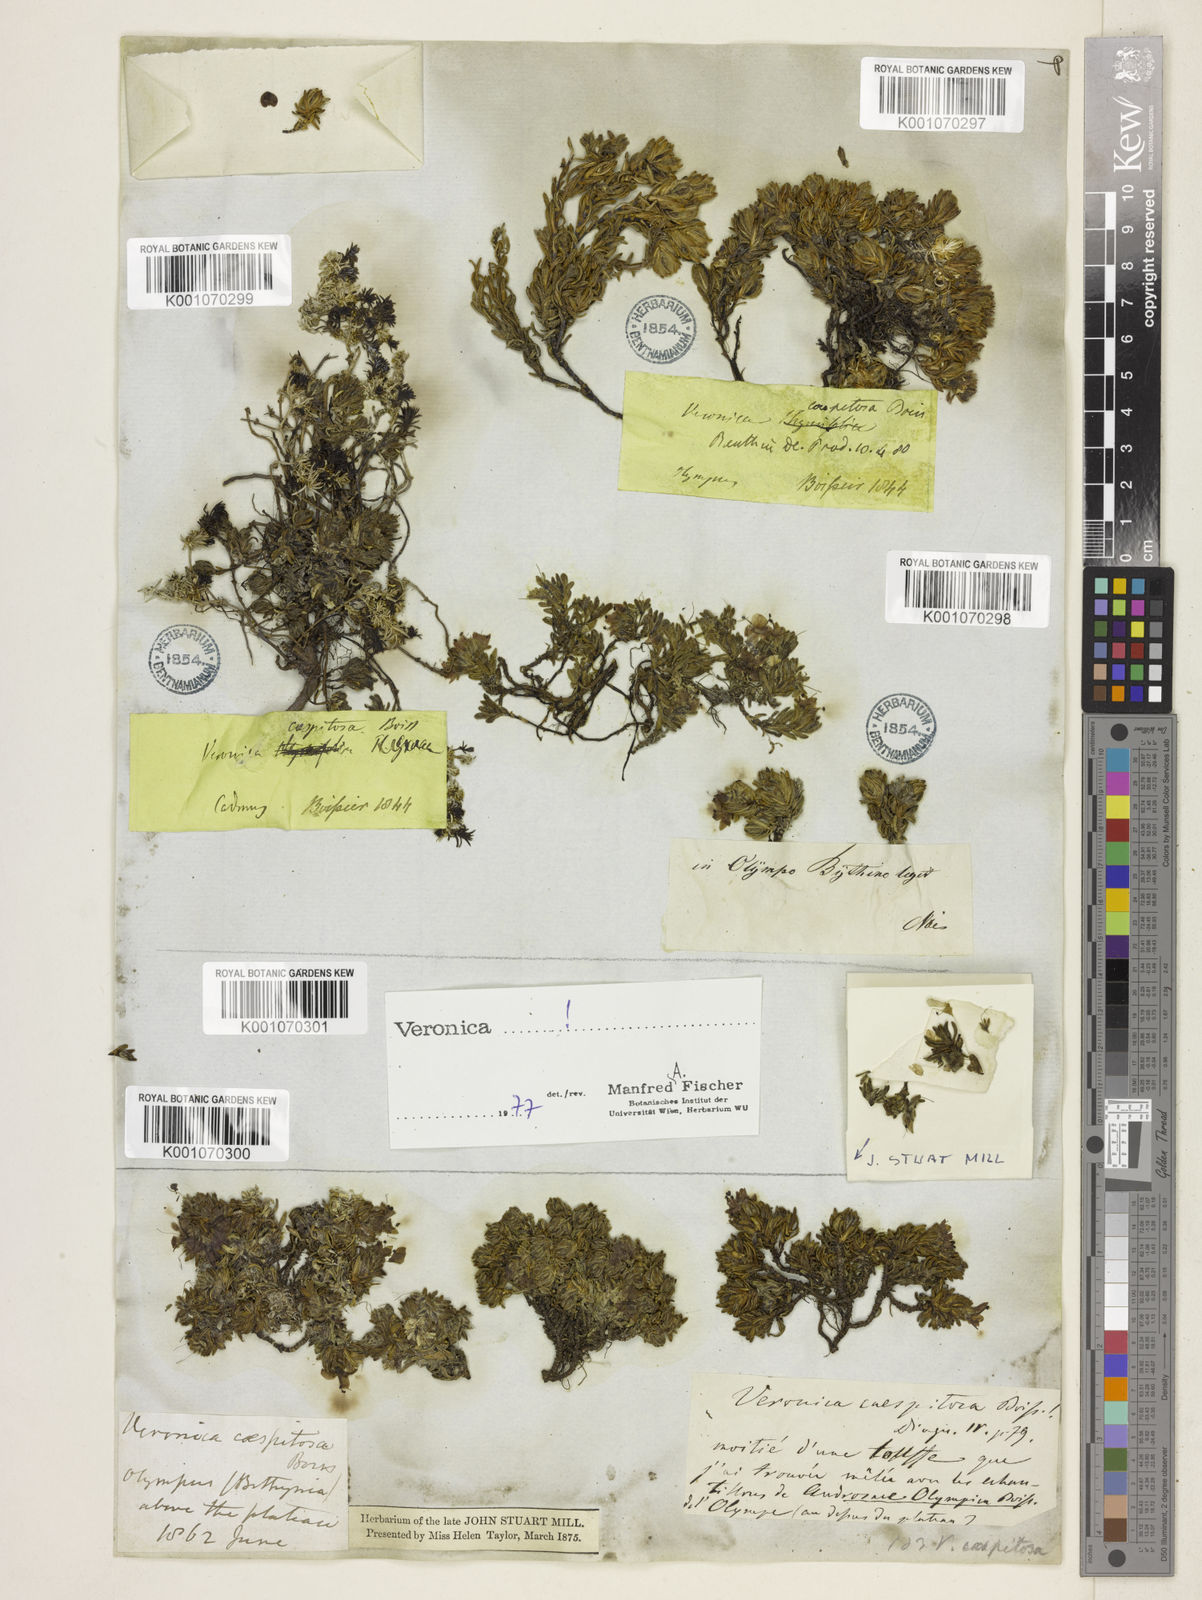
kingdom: Plantae
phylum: Tracheophyta
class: Magnoliopsida
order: Lamiales
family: Plantaginaceae
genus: Veronica
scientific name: Veronica caespitosa
